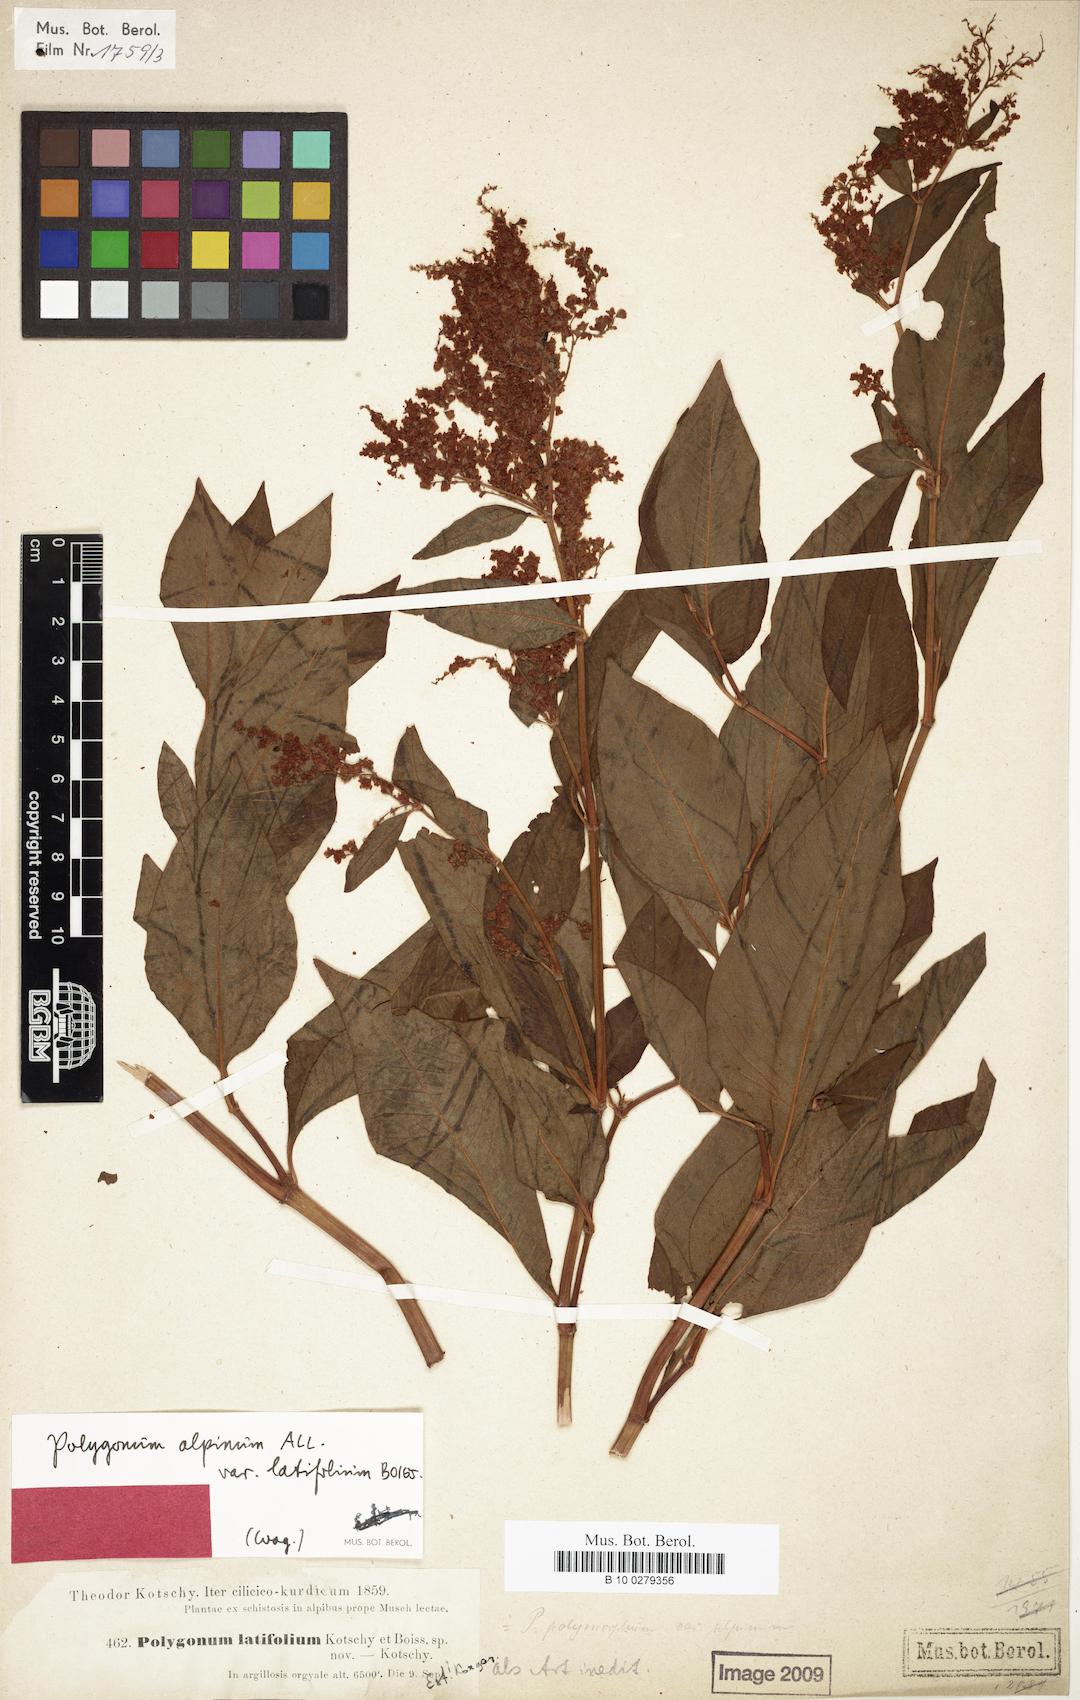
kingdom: Plantae
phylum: Tracheophyta
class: Magnoliopsida
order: Caryophyllales
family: Polygonaceae
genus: Koenigia
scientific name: Koenigia alpina
